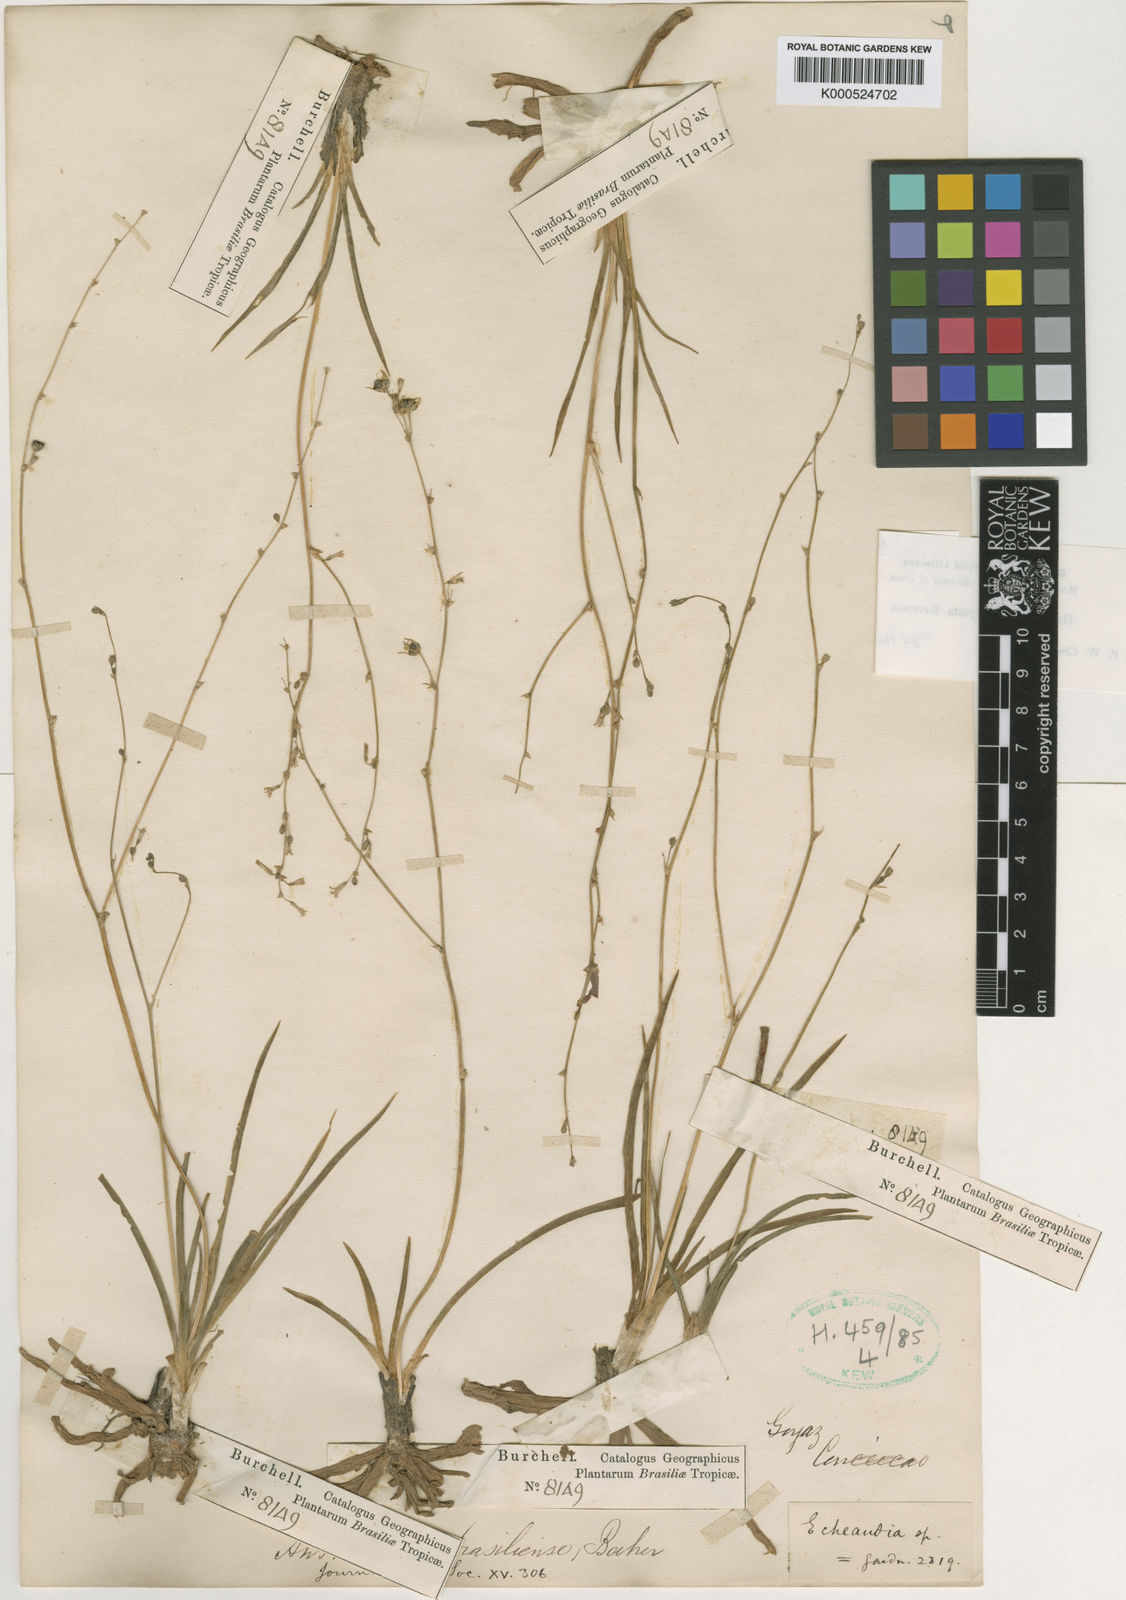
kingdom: Plantae
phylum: Tracheophyta
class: Liliopsida
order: Asparagales
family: Asparagaceae
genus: Hagenbachia
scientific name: Hagenbachia matogrossensis
